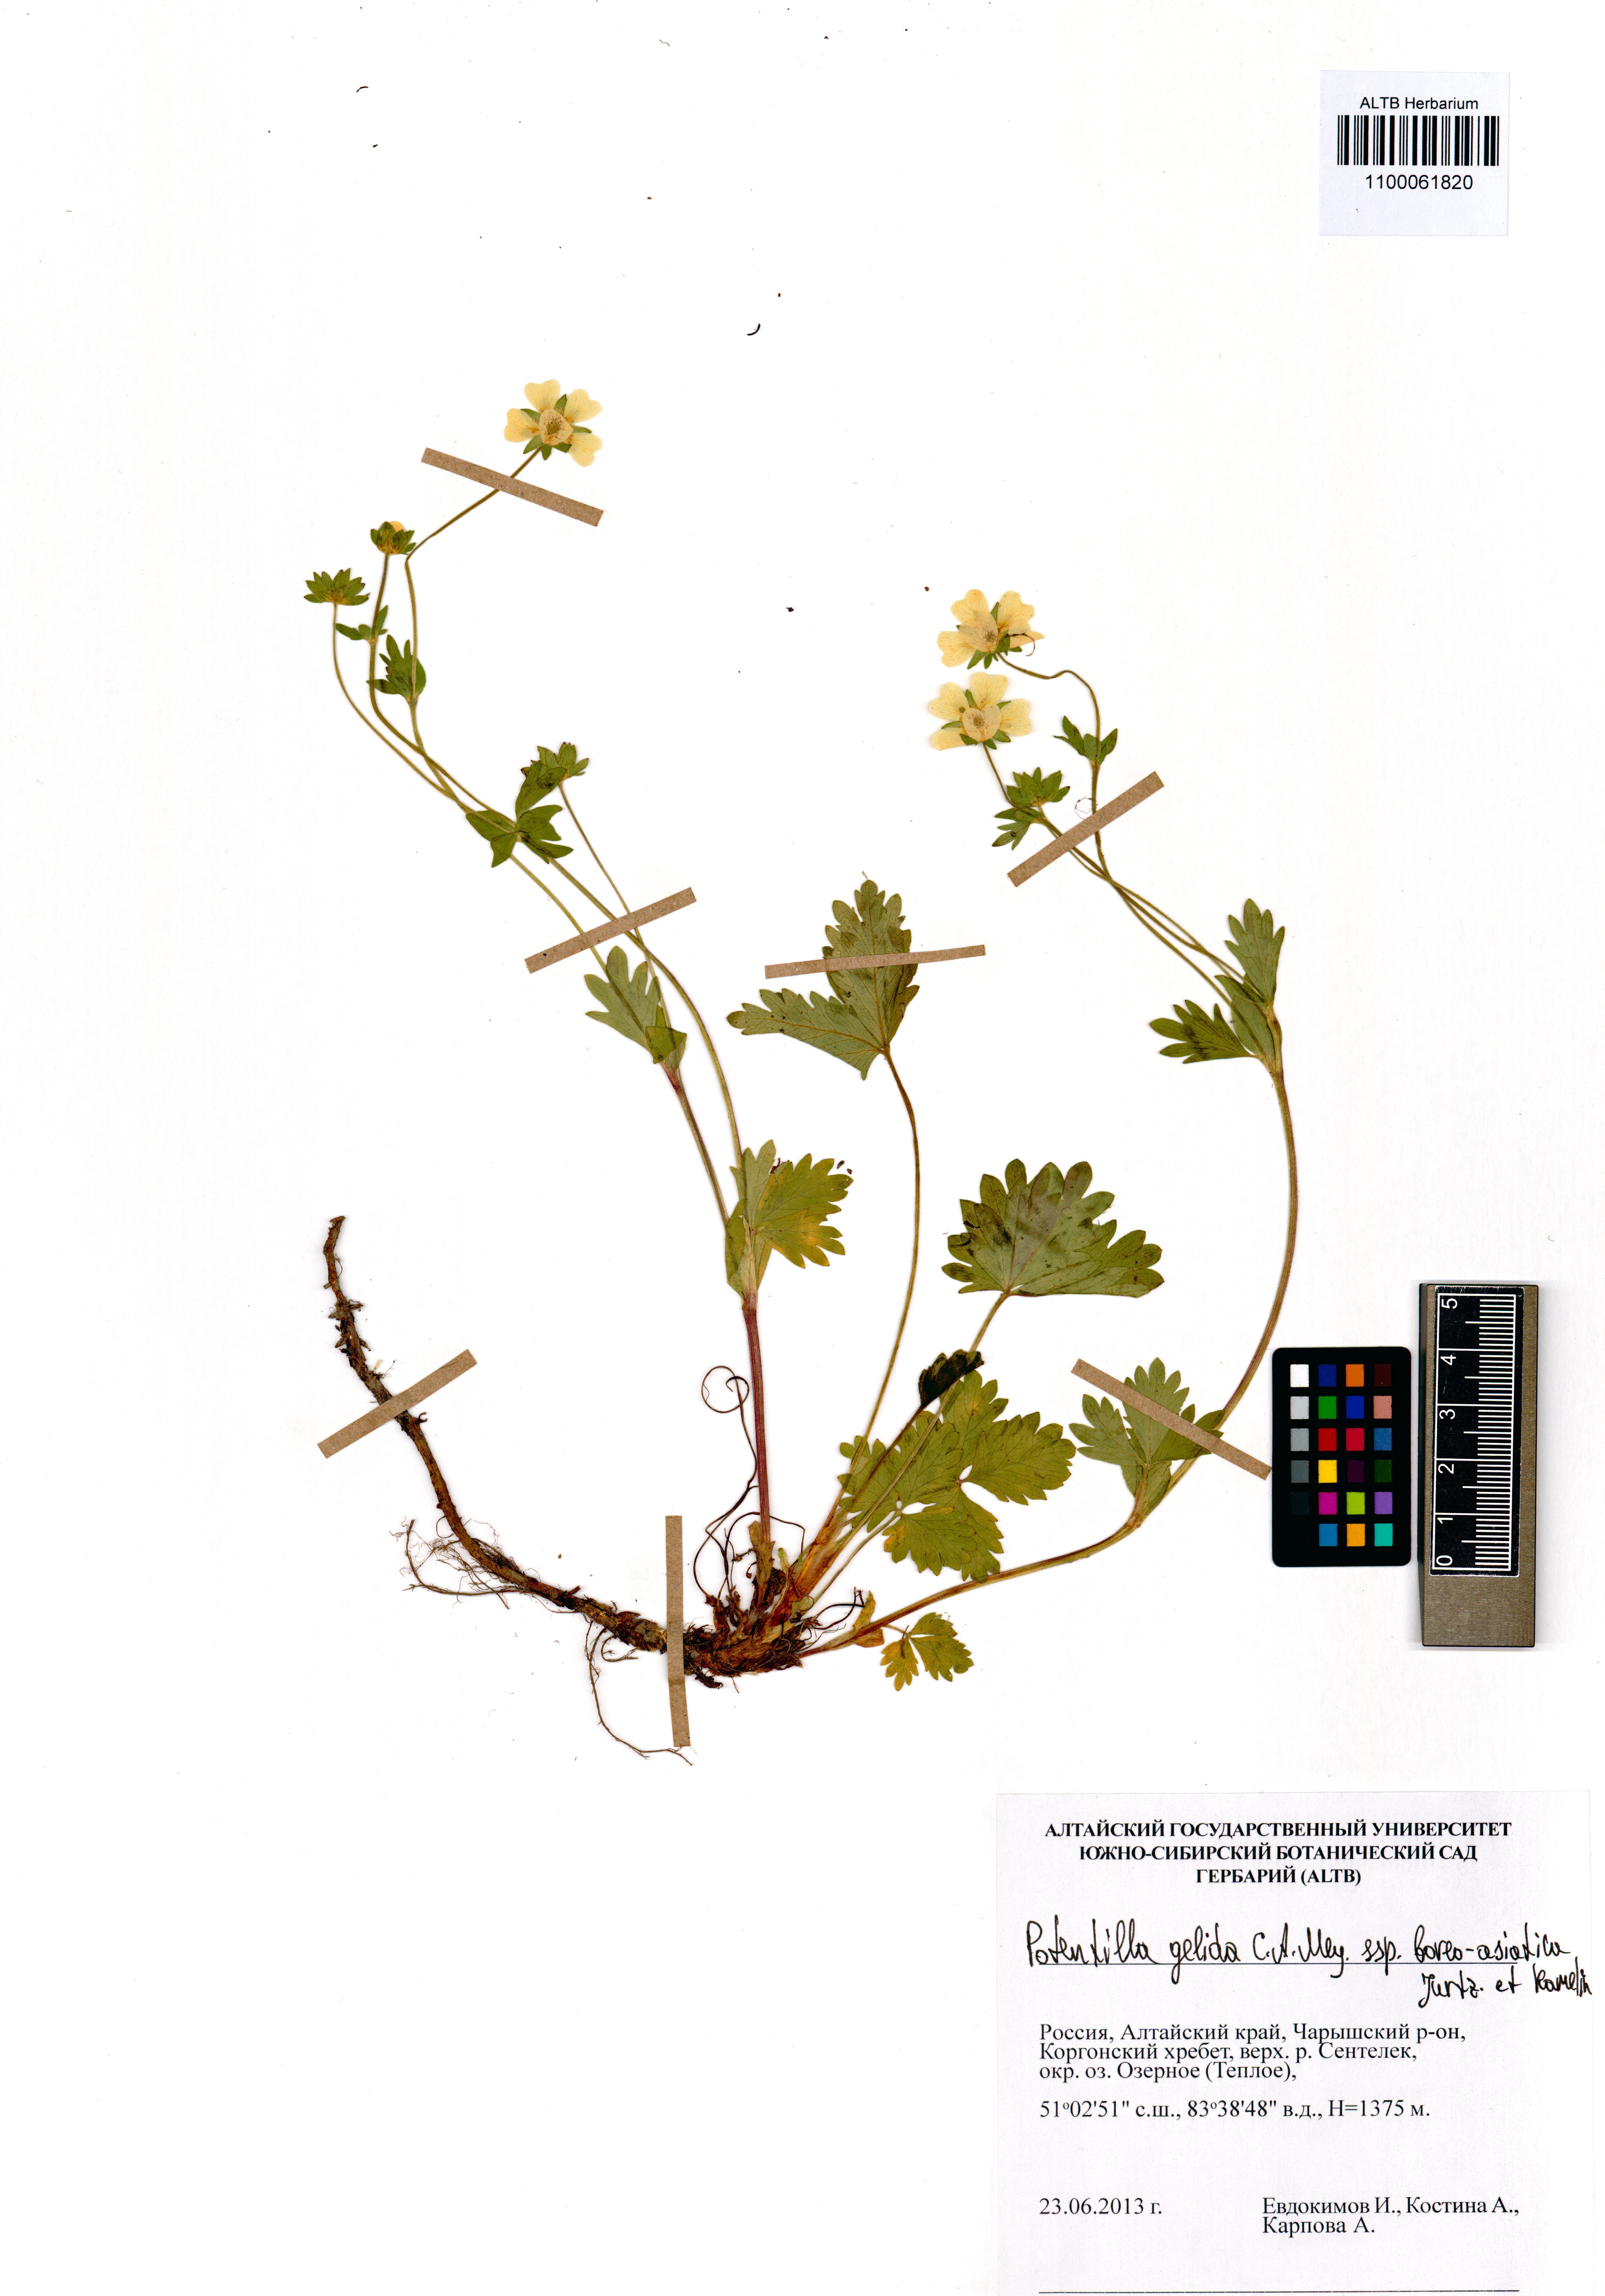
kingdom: Plantae
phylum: Tracheophyta
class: Magnoliopsida
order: Rosales
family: Rosaceae
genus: Potentilla
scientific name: Potentilla crantzii
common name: Alpine cinquefoil
